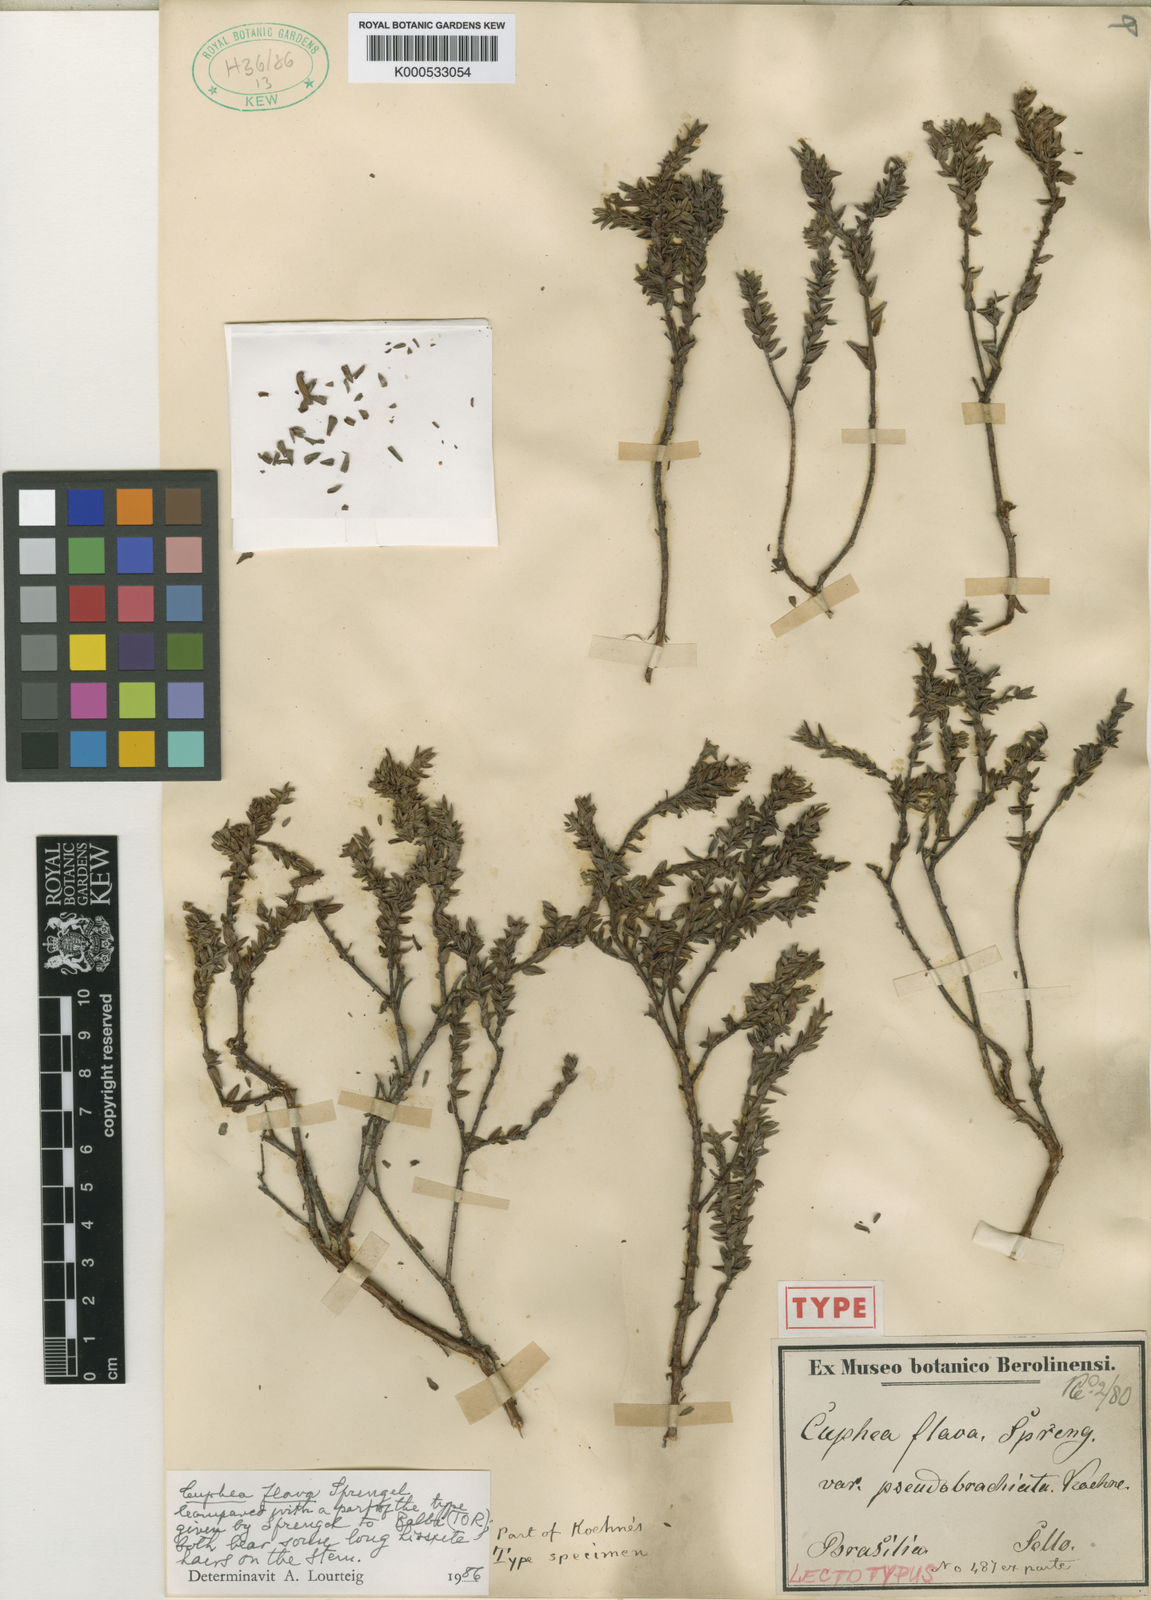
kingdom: Plantae
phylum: Tracheophyta
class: Magnoliopsida
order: Myrtales
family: Lythraceae
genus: Cuphea
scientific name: Cuphea flava
